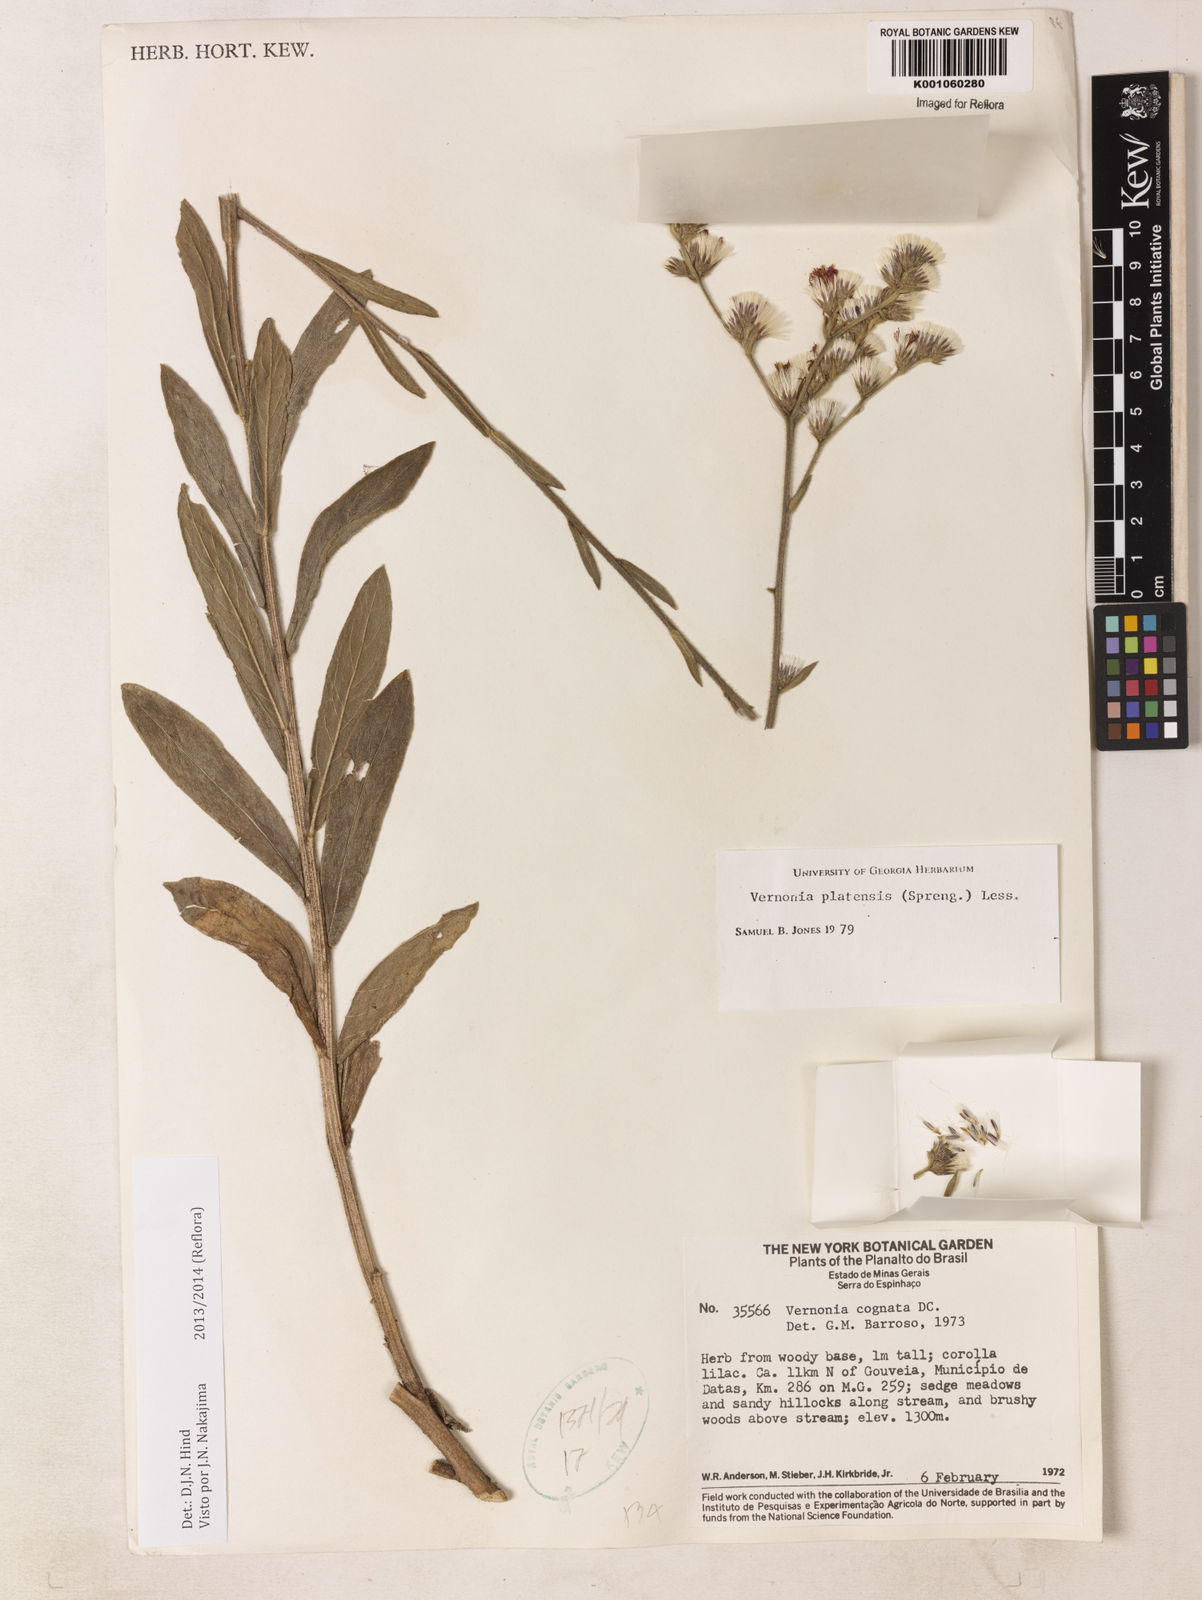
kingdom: Plantae
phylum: Tracheophyta
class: Magnoliopsida
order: Asterales
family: Asteraceae
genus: Chrysolaena
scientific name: Chrysolaena platensis
